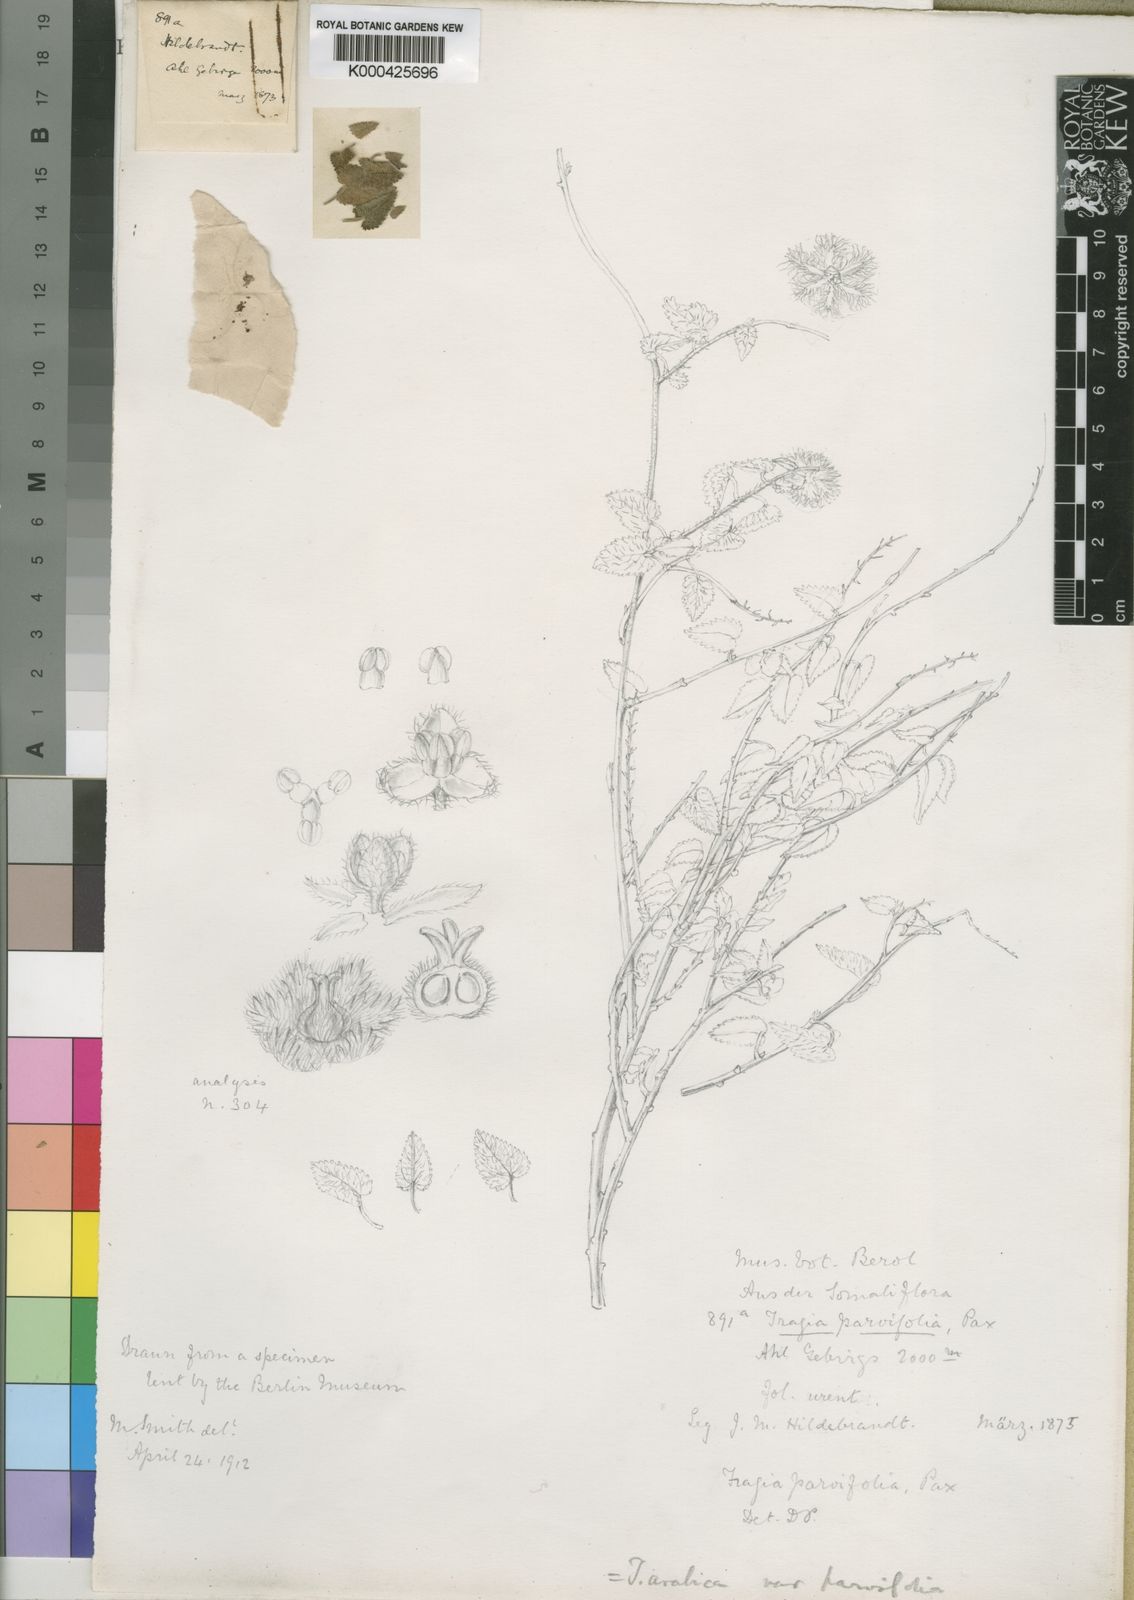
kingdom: Plantae
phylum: Tracheophyta
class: Magnoliopsida
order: Malpighiales
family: Euphorbiaceae
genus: Tragia
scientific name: Tragia
